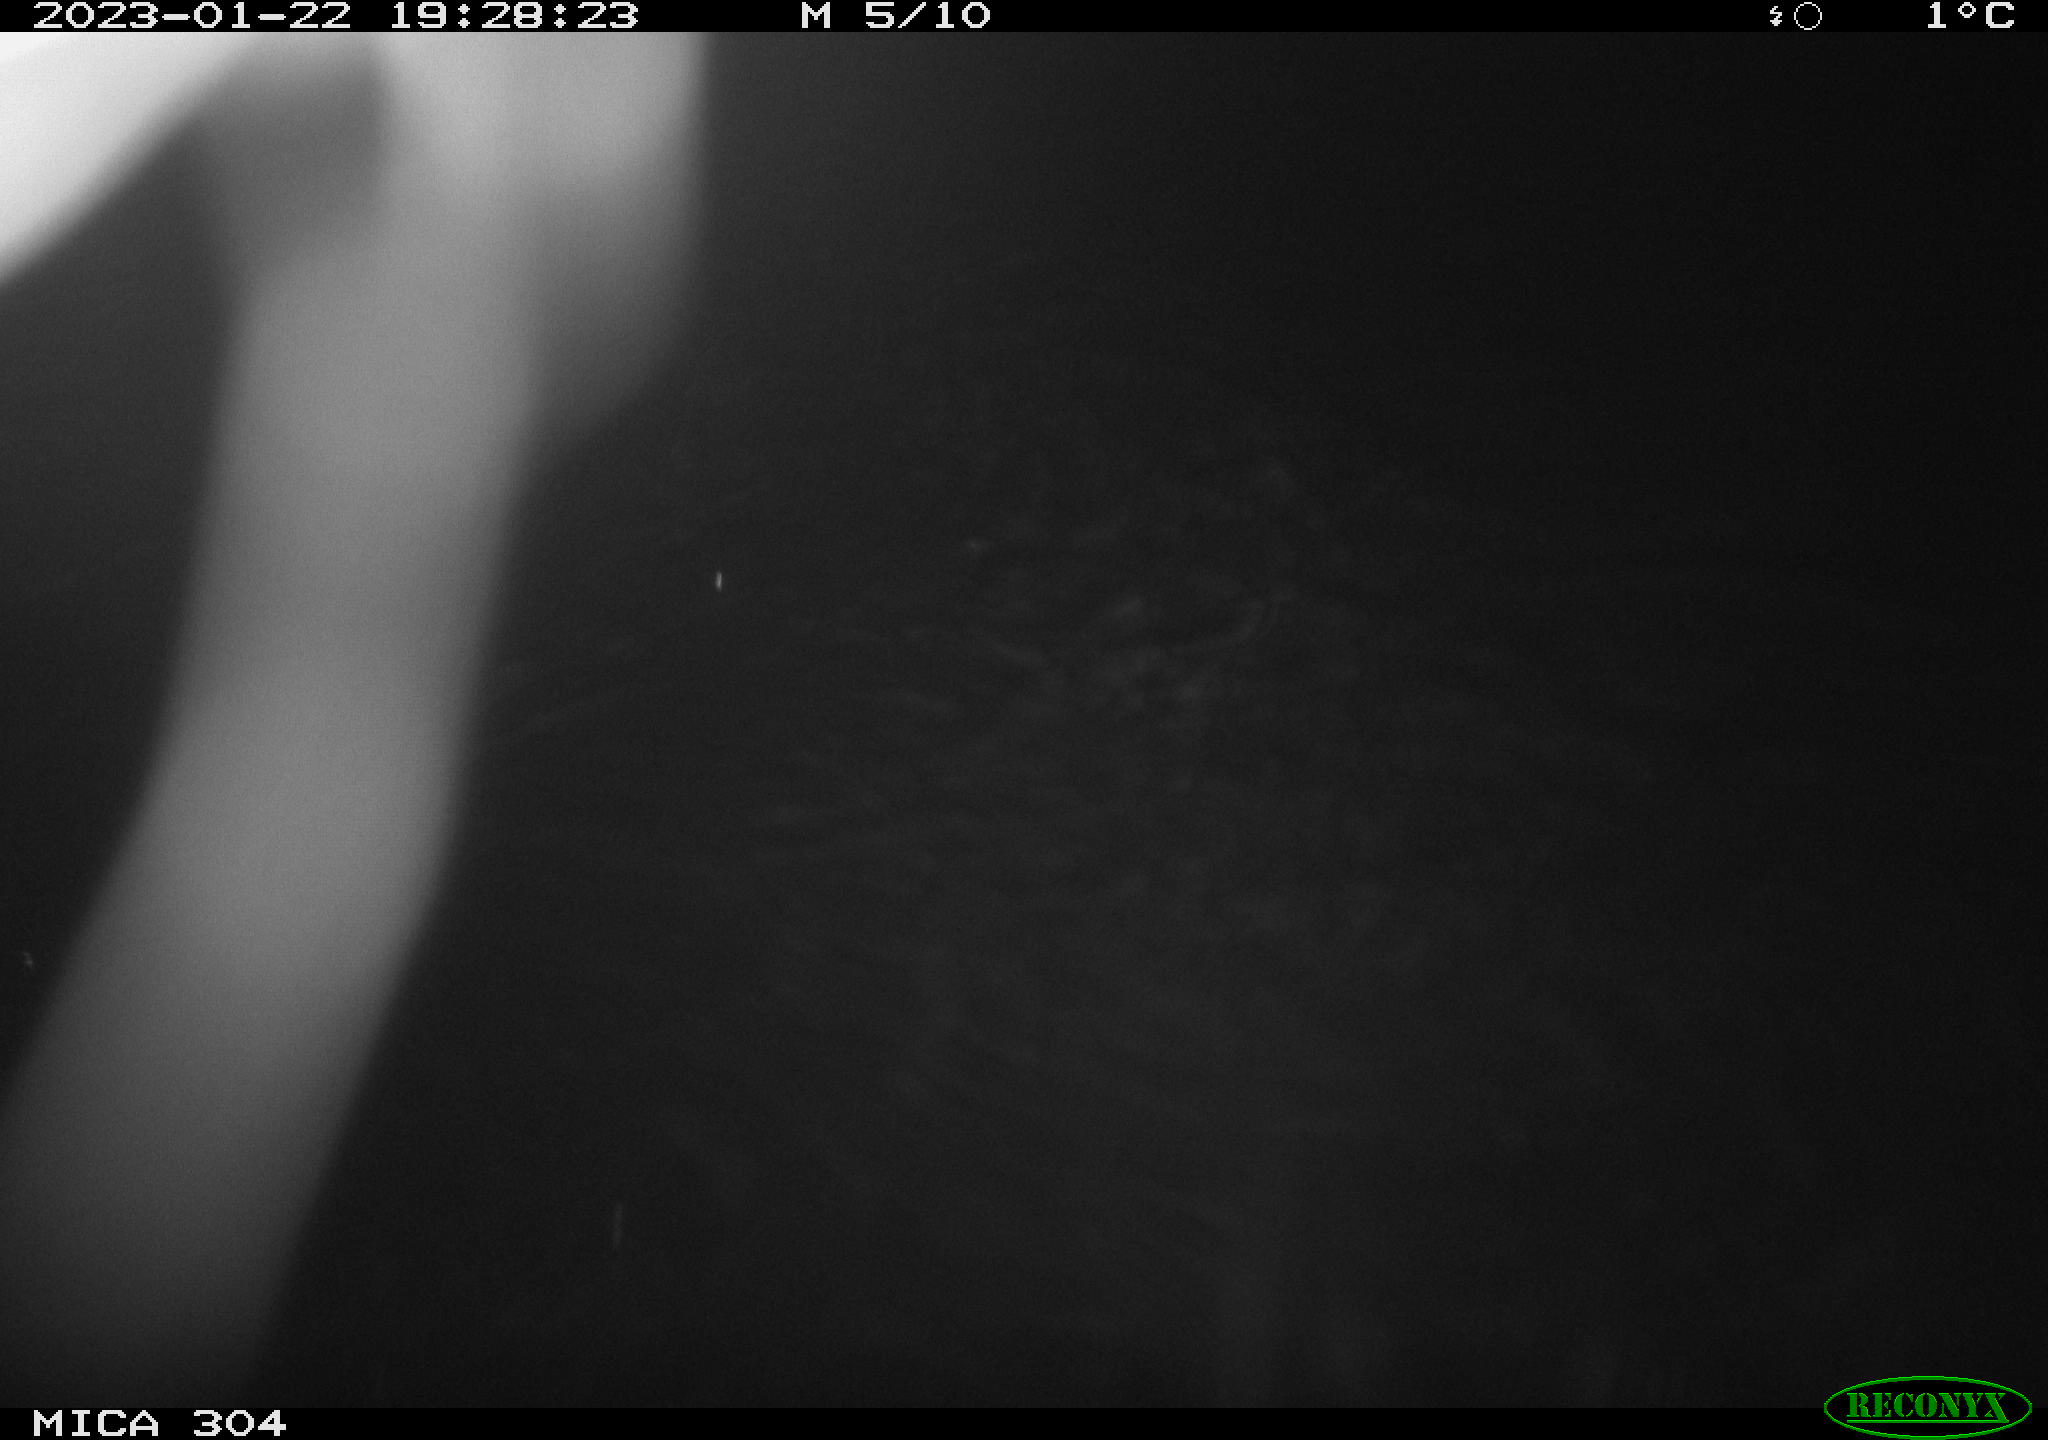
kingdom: Animalia
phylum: Chordata
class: Mammalia
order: Rodentia
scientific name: Rodentia
